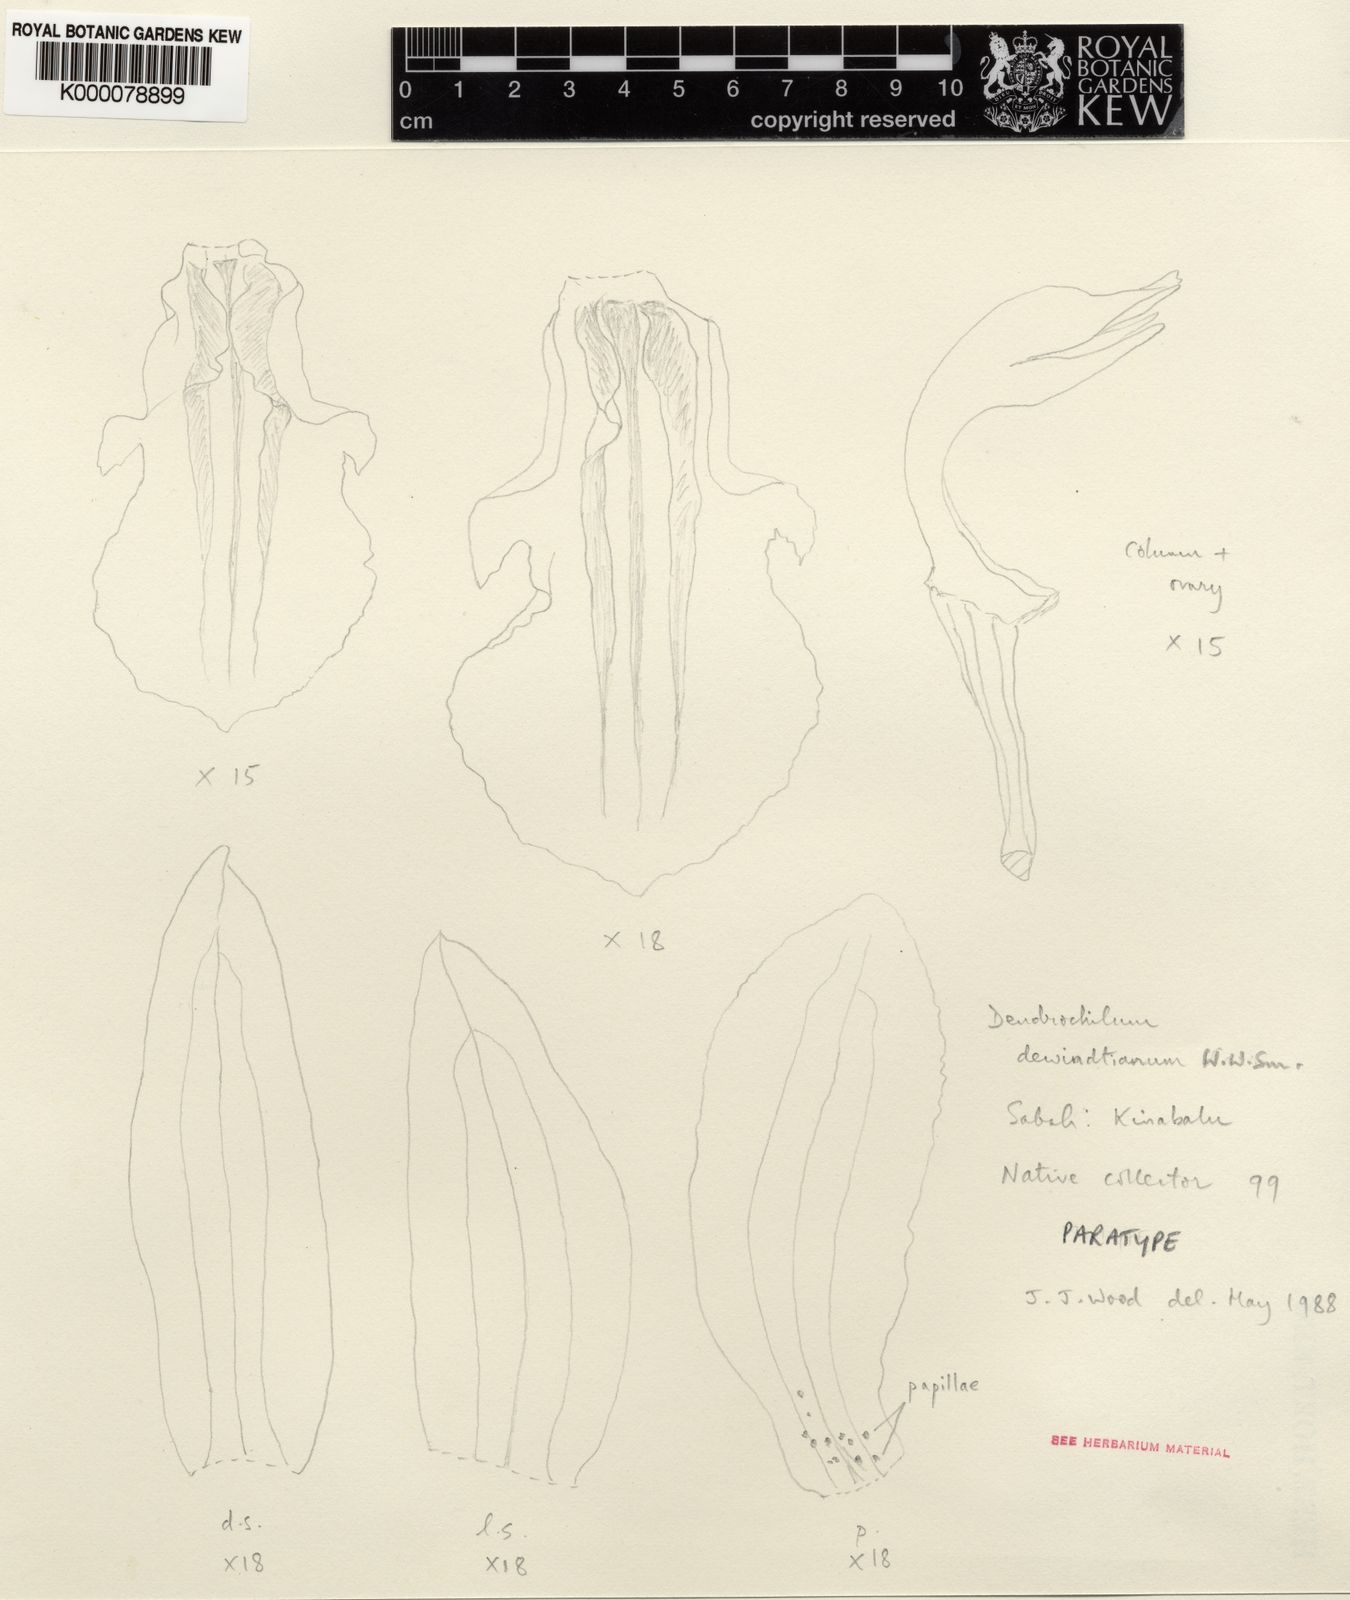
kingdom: Plantae
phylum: Tracheophyta
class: Liliopsida
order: Asparagales
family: Orchidaceae
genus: Coelogyne
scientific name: Coelogyne dewindtiana
